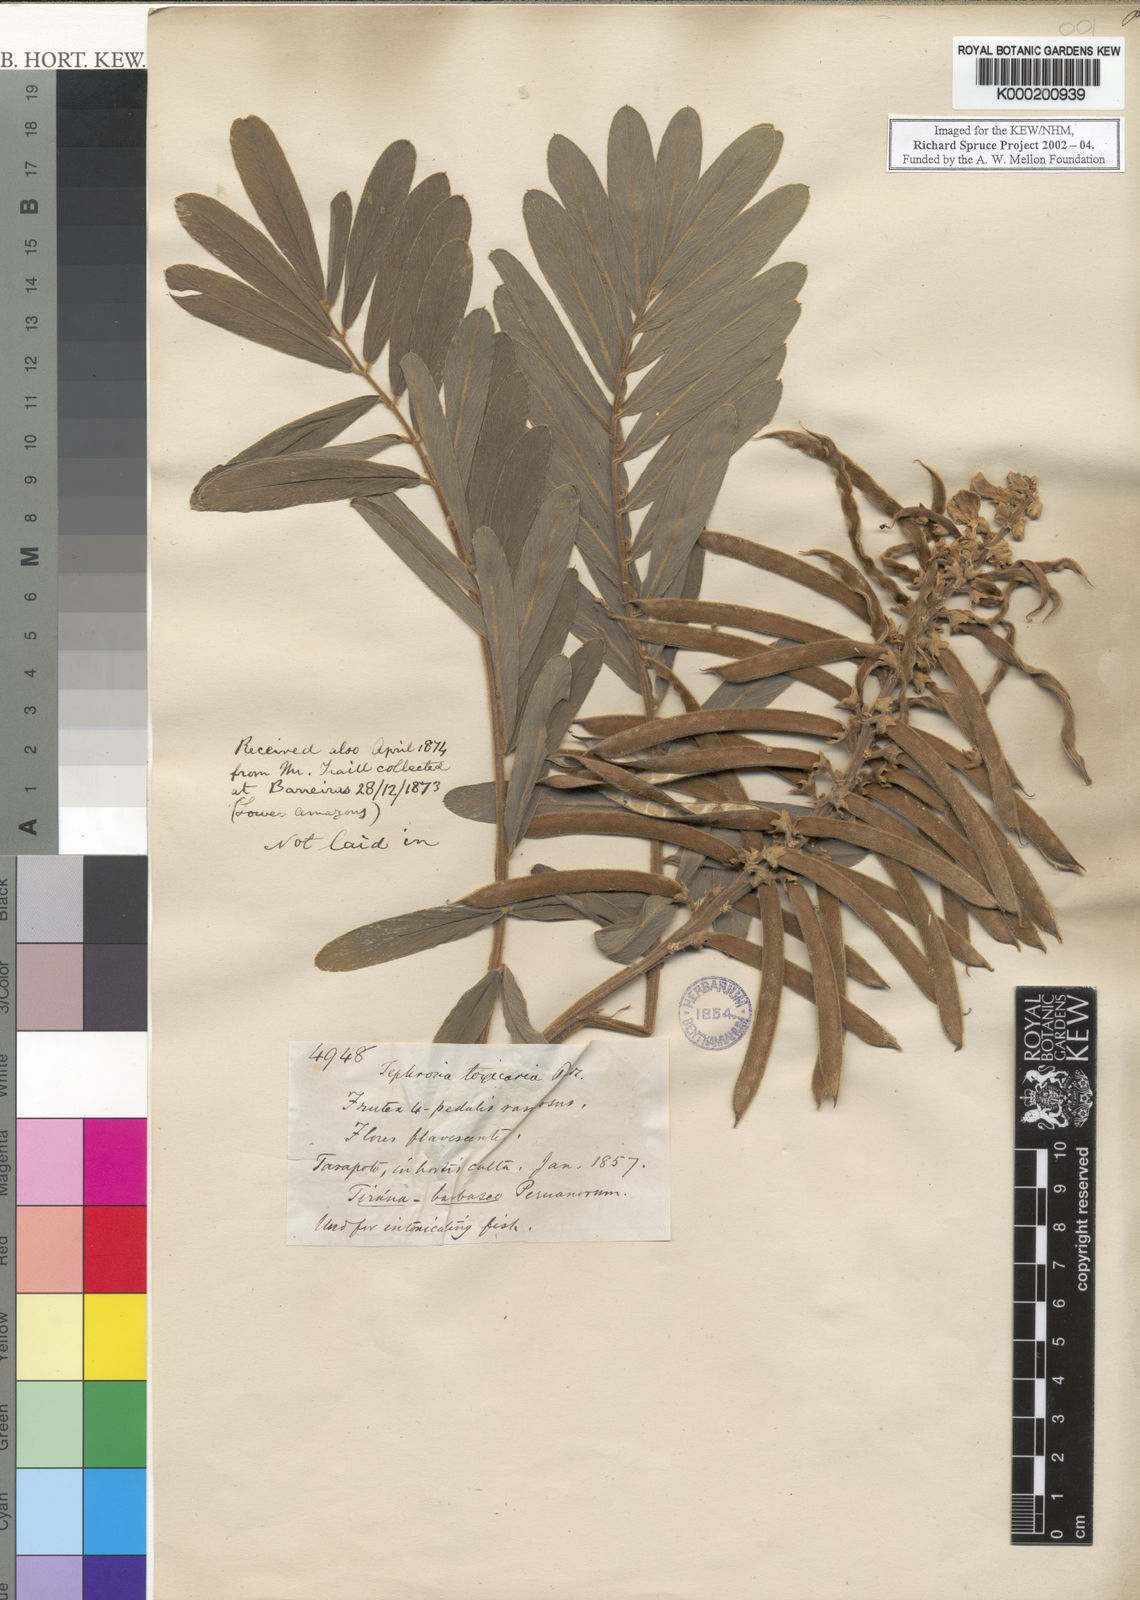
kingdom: Plantae
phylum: Tracheophyta
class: Magnoliopsida
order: Fabales
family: Fabaceae
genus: Tephrosia
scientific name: Tephrosia sinapou
